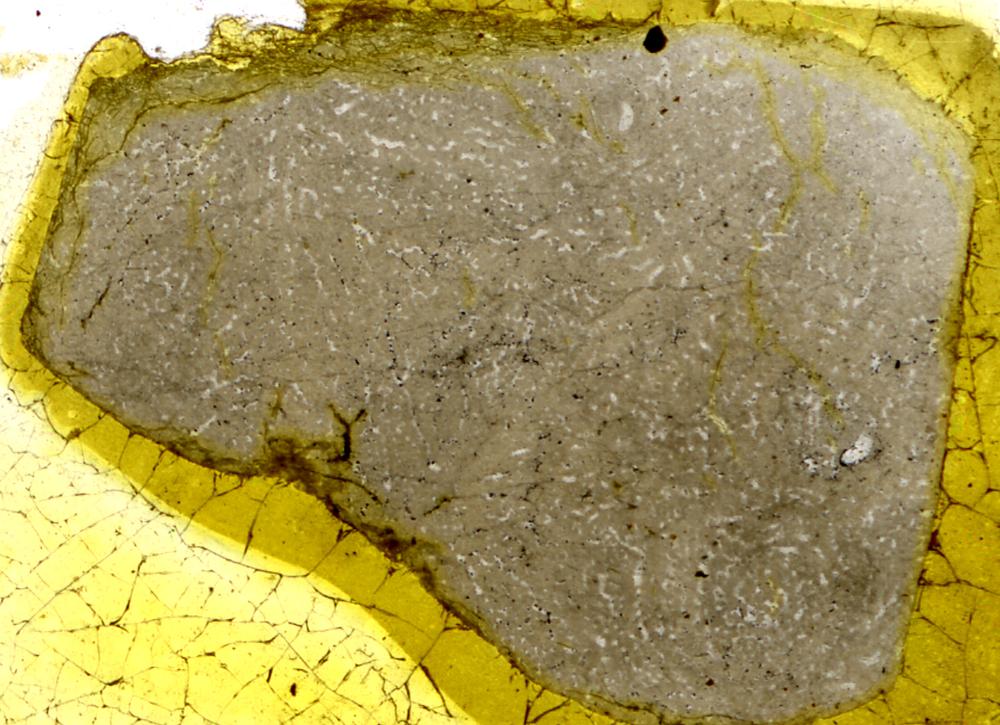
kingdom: Animalia
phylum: Porifera
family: Stromatoporidae
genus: Eostromatopora
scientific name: Eostromatopora
